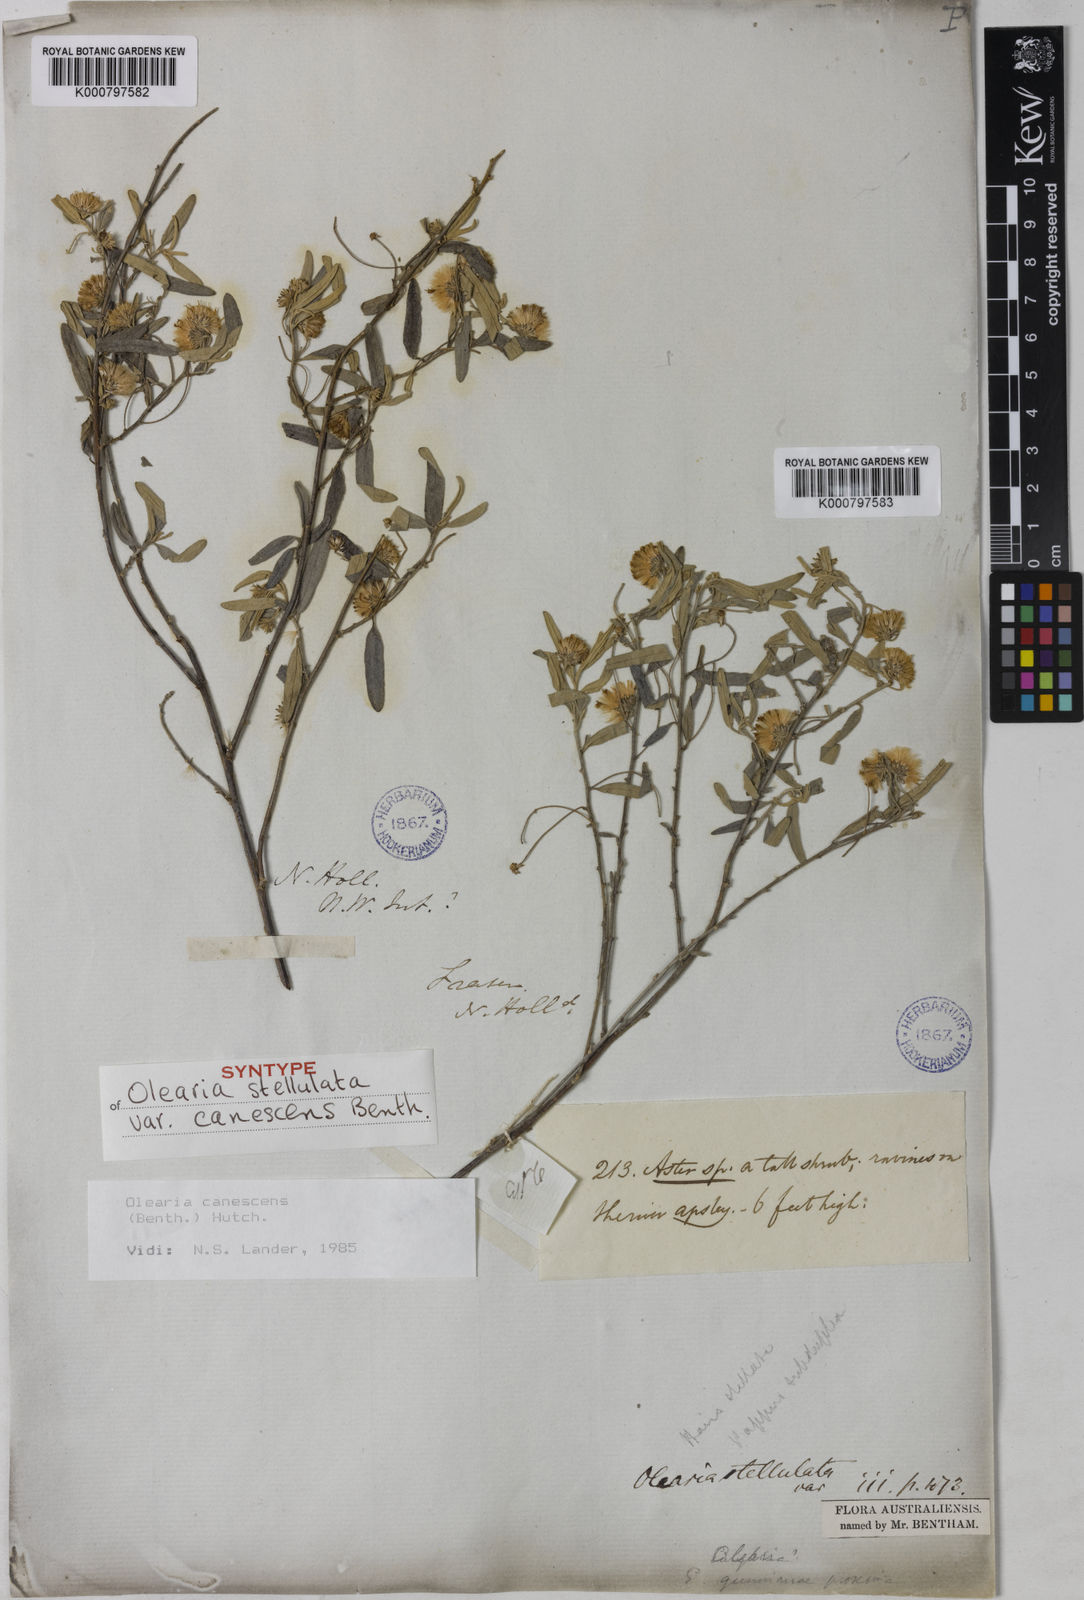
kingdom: Plantae
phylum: Tracheophyta
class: Magnoliopsida
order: Asterales
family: Asteraceae
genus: Olearia
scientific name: Olearia canescens
